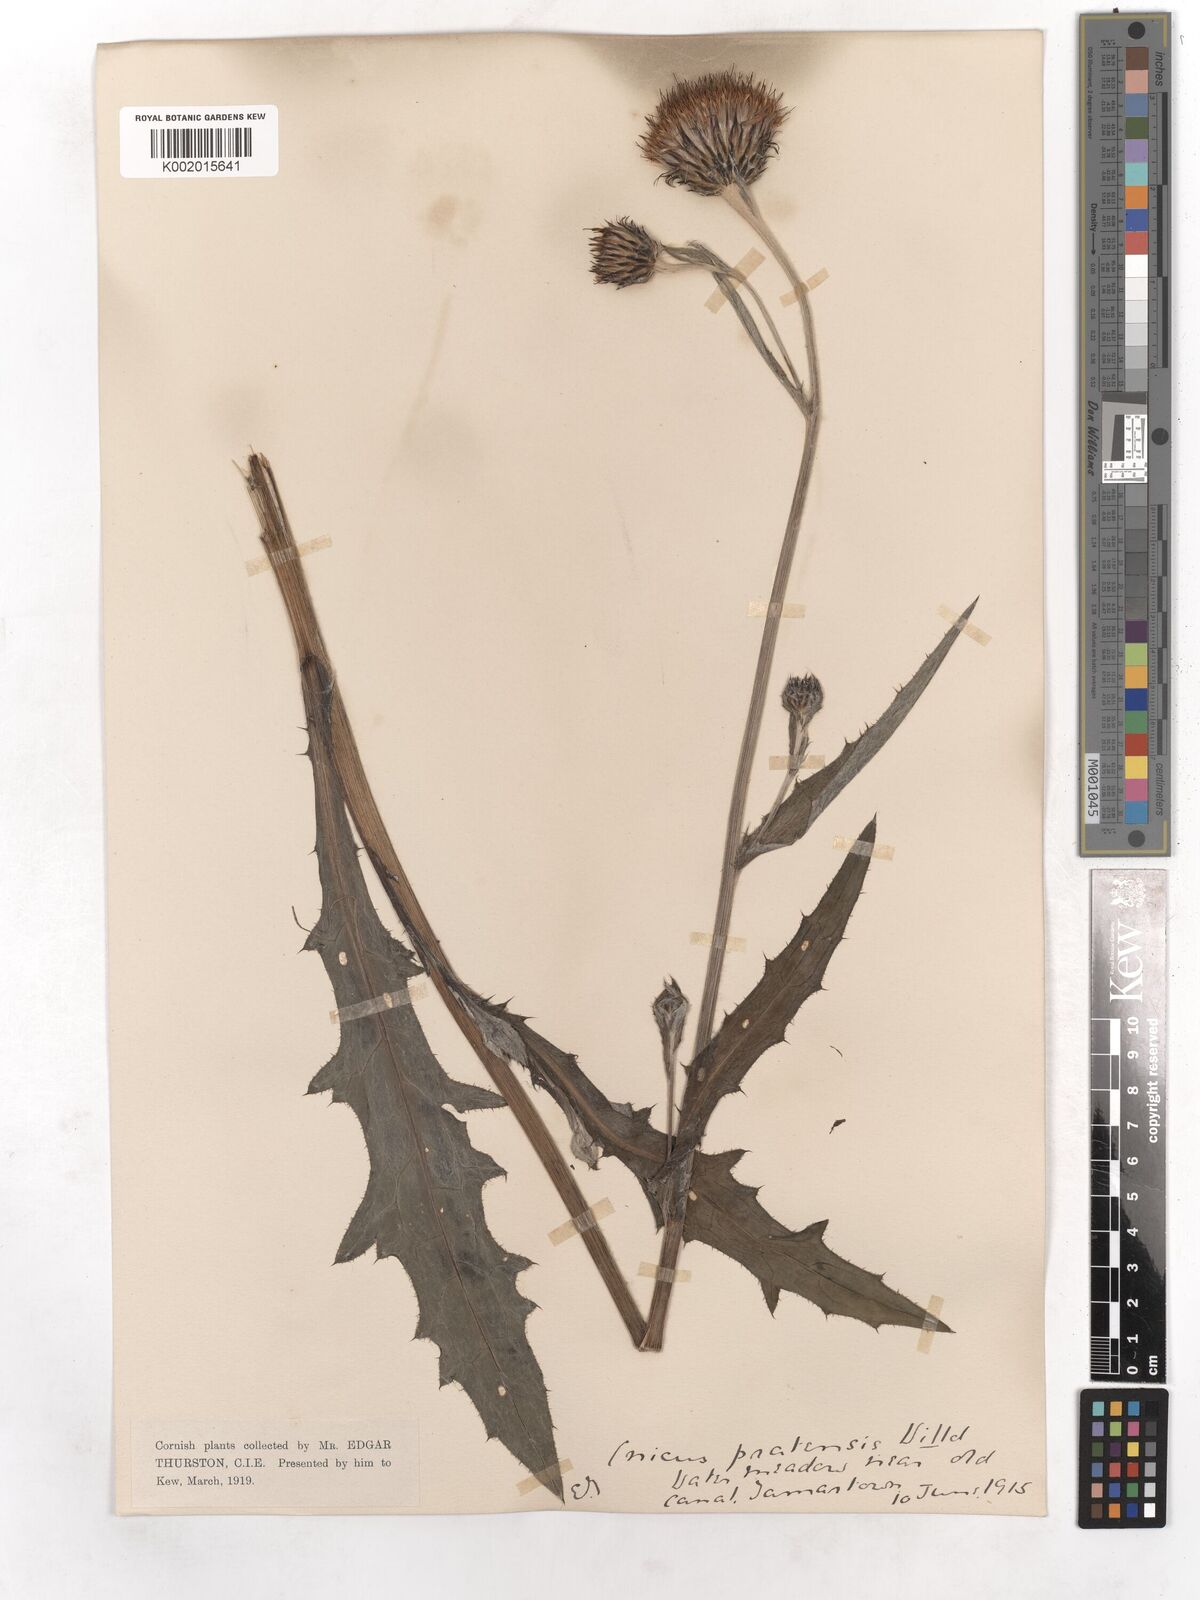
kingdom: Plantae
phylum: Tracheophyta
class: Magnoliopsida
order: Asterales
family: Asteraceae
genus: Cirsium
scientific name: Cirsium dissectum
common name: Meadow thistle
